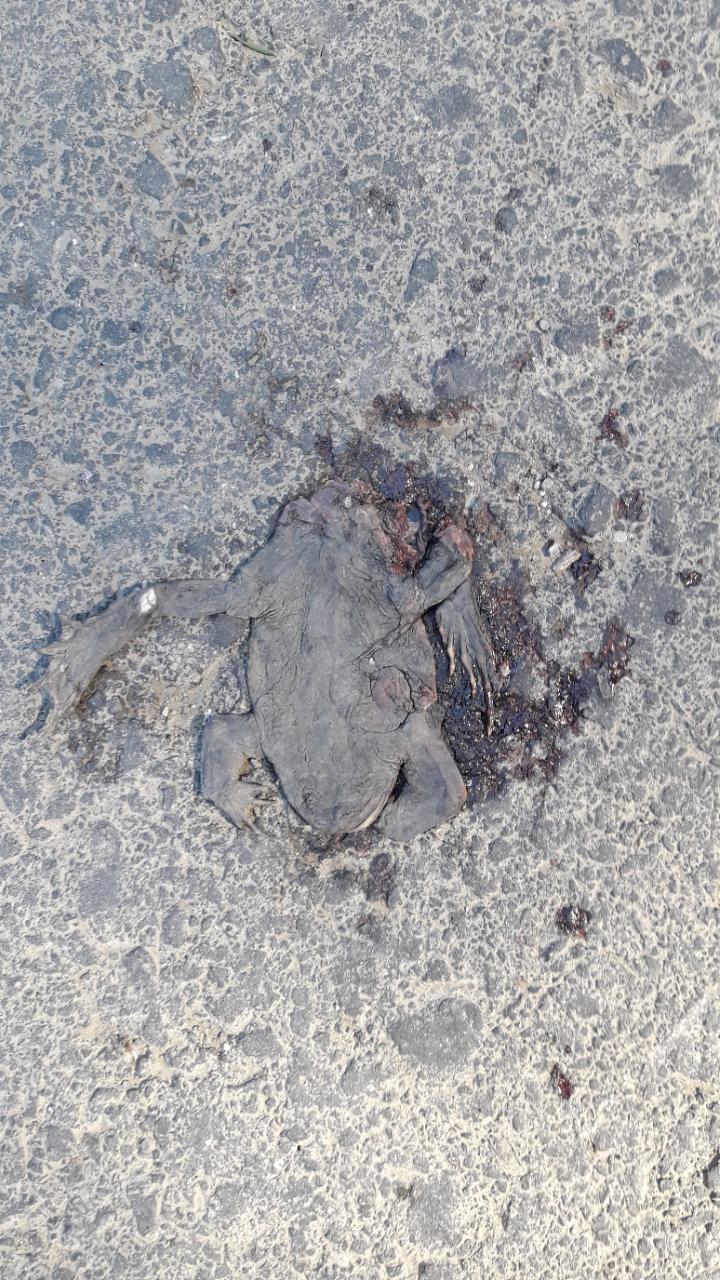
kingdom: Animalia
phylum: Chordata
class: Amphibia
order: Anura
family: Bufonidae
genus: Bufo
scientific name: Bufo bufo
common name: Common toad
